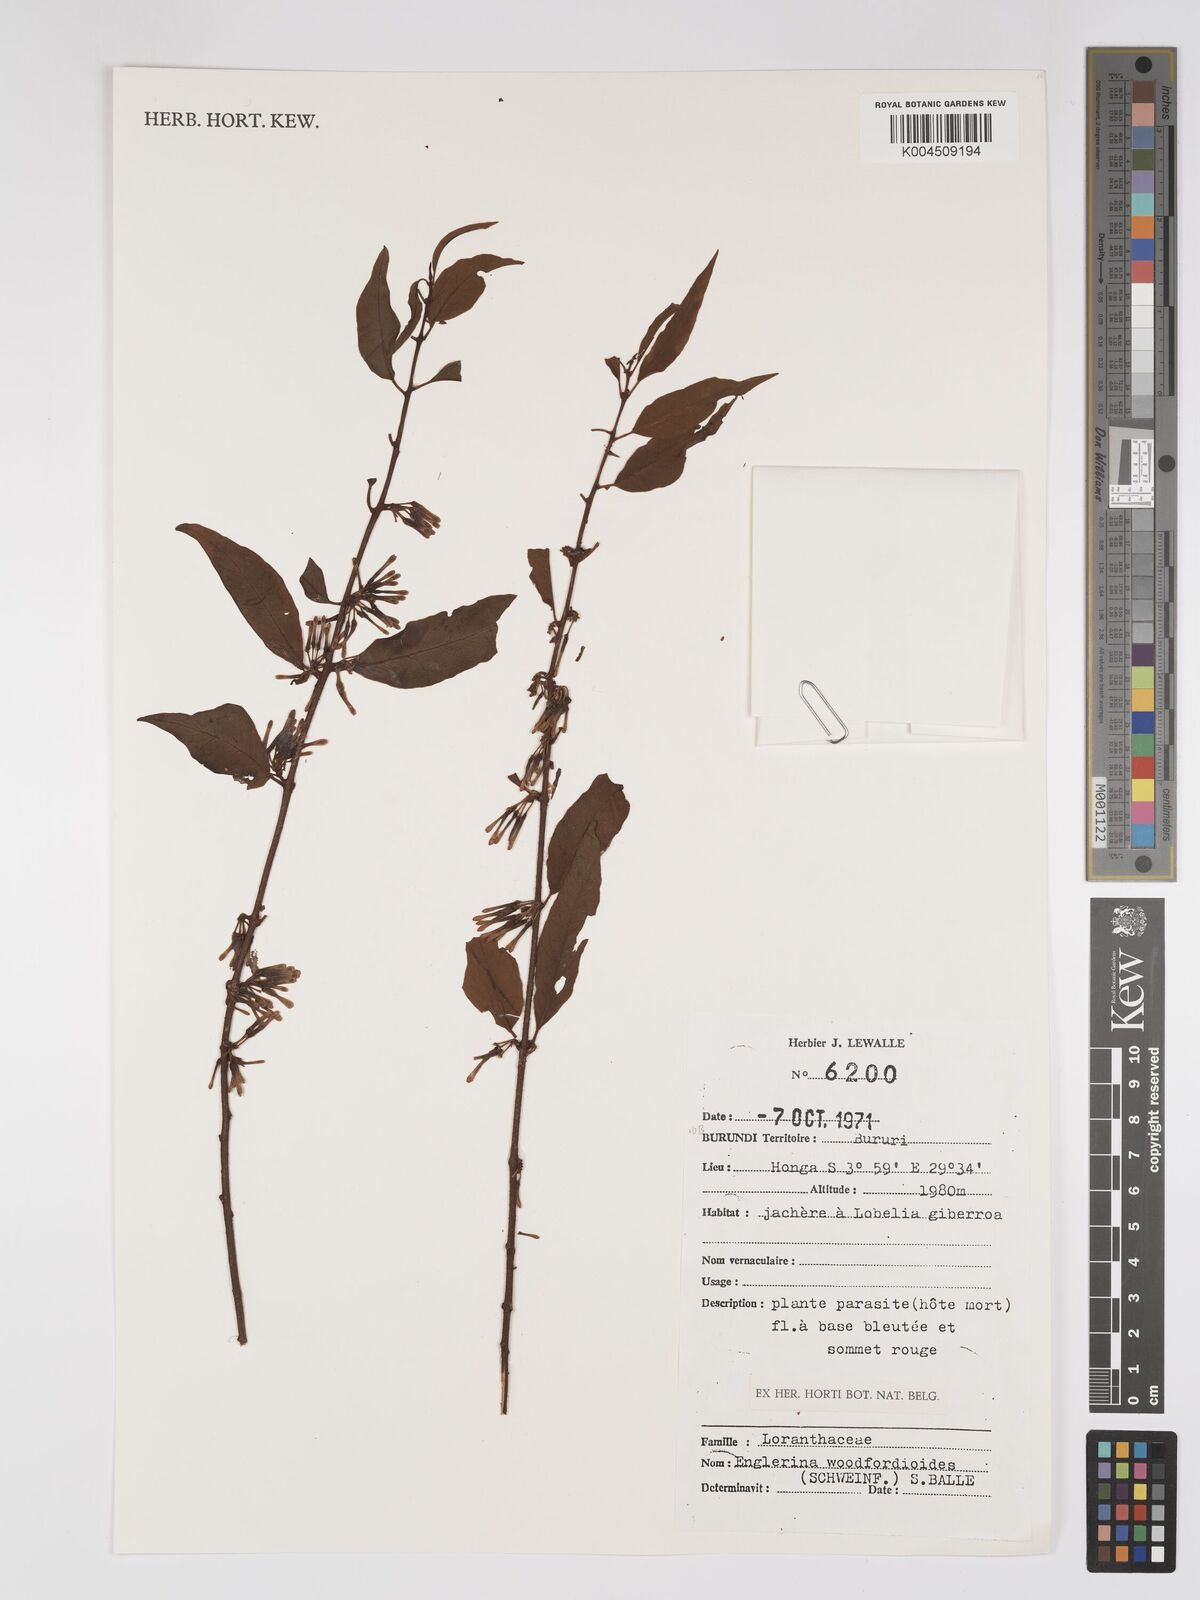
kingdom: Plantae
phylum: Tracheophyta
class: Magnoliopsida
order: Santalales
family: Loranthaceae
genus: Englerina
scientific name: Englerina woodfordioides
